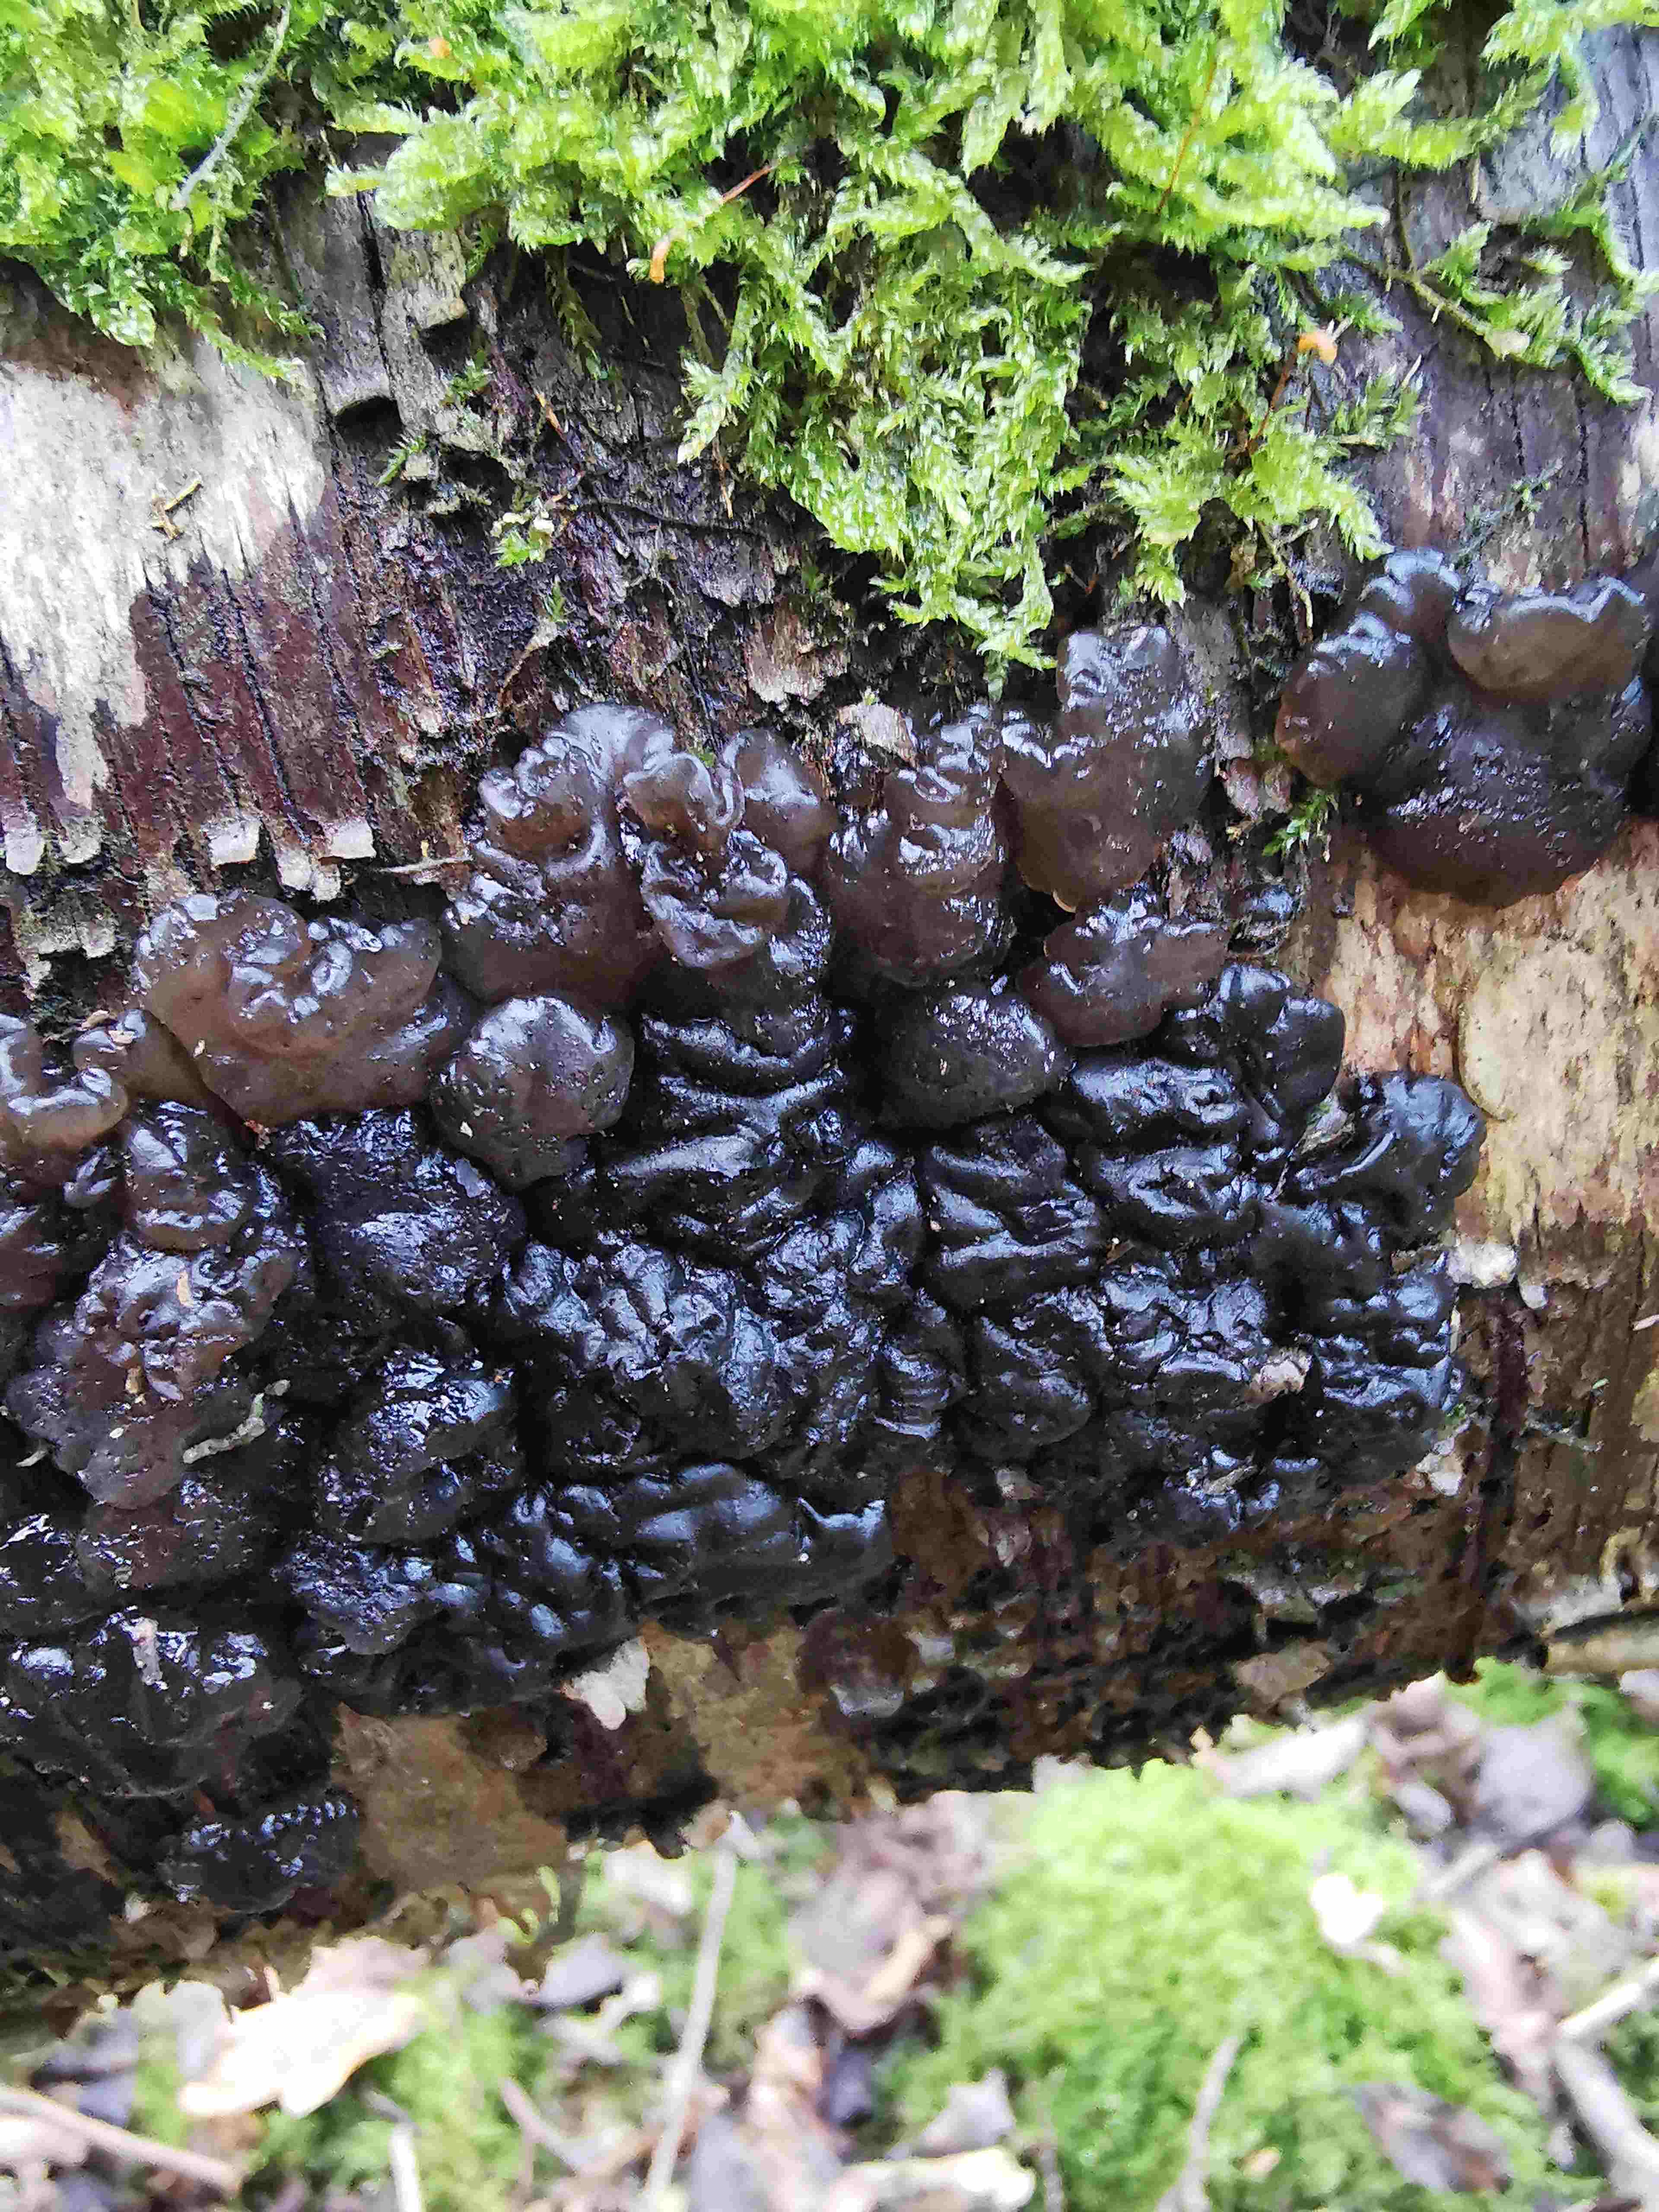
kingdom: Fungi
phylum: Basidiomycota
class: Agaricomycetes
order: Auriculariales
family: Auriculariaceae
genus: Exidia
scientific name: Exidia nigricans
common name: almindelig bævretop
